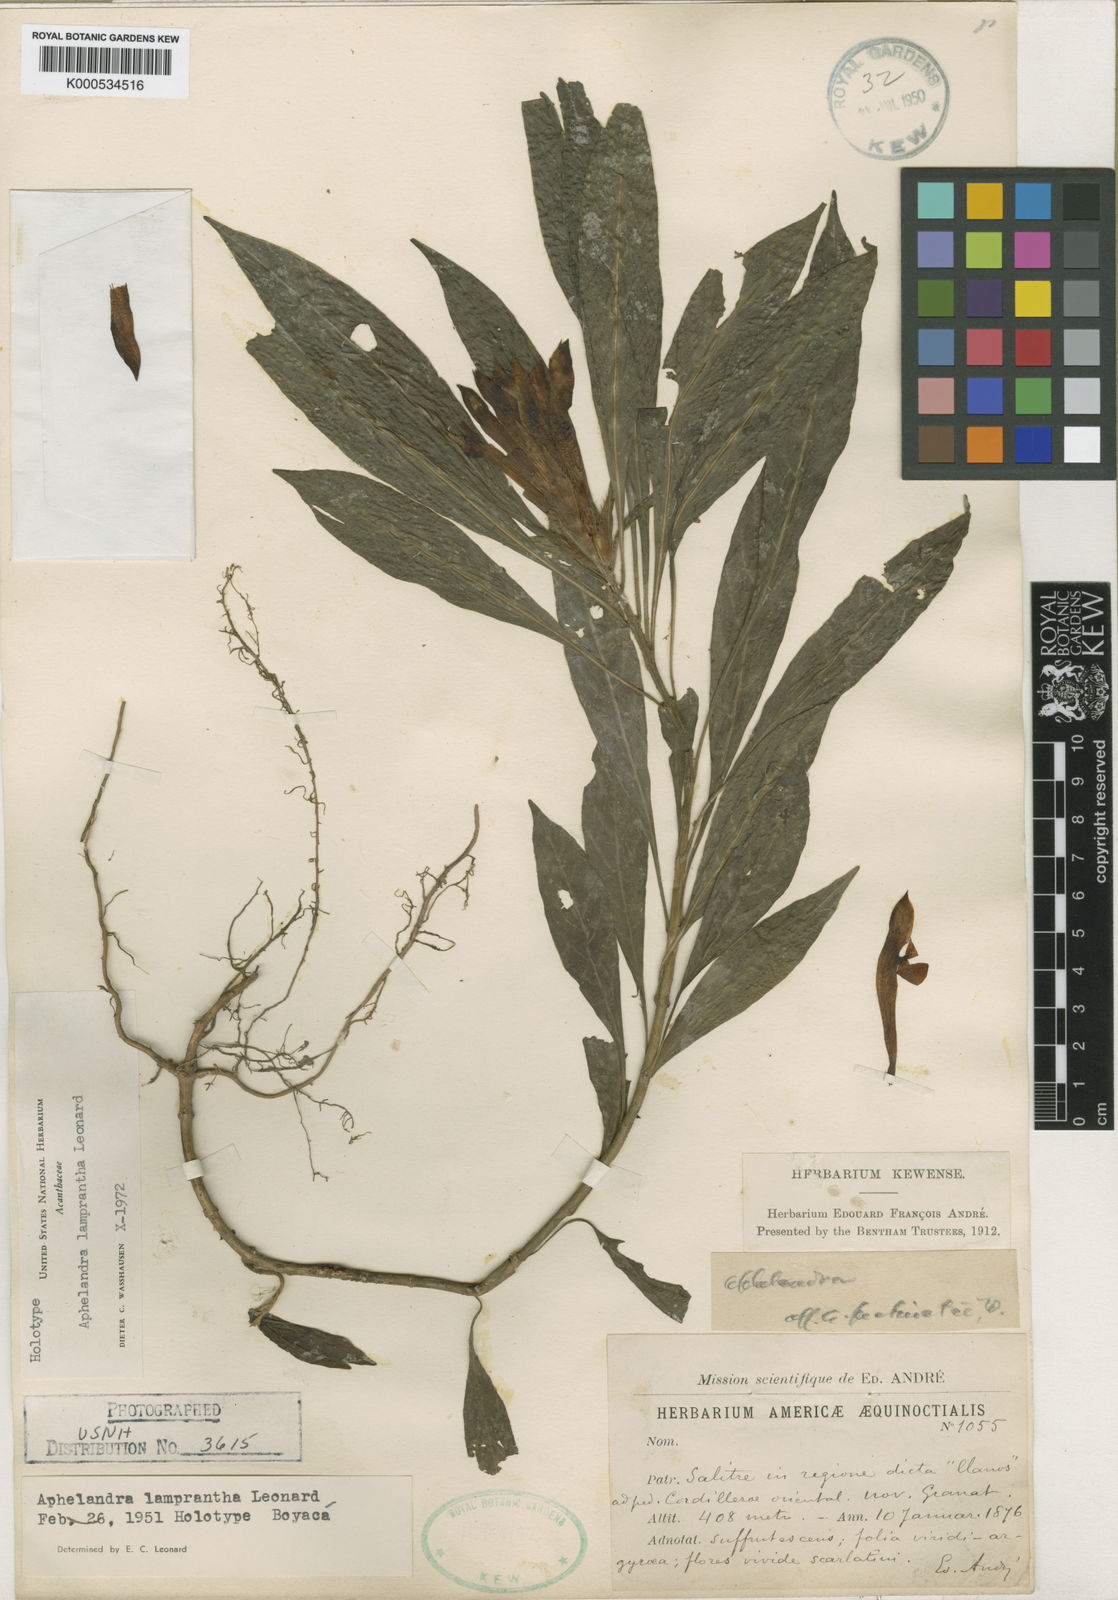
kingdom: Plantae
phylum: Tracheophyta
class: Magnoliopsida
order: Lamiales
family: Acanthaceae
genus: Aphelandra
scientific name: Aphelandra lamprantha
